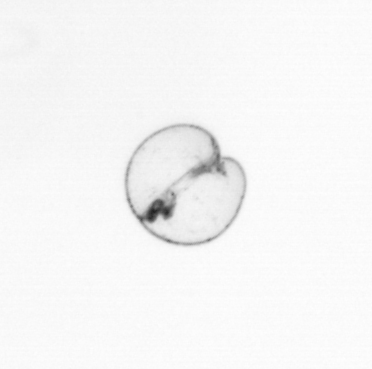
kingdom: Chromista
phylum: Myzozoa
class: Dinophyceae
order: Noctilucales
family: Noctilucaceae
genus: Noctiluca
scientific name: Noctiluca scintillans
